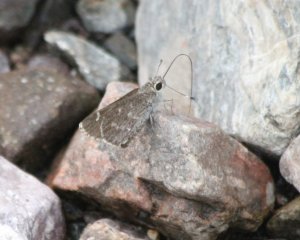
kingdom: Animalia
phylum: Arthropoda
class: Insecta
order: Lepidoptera
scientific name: Lepidoptera
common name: Butterflies
